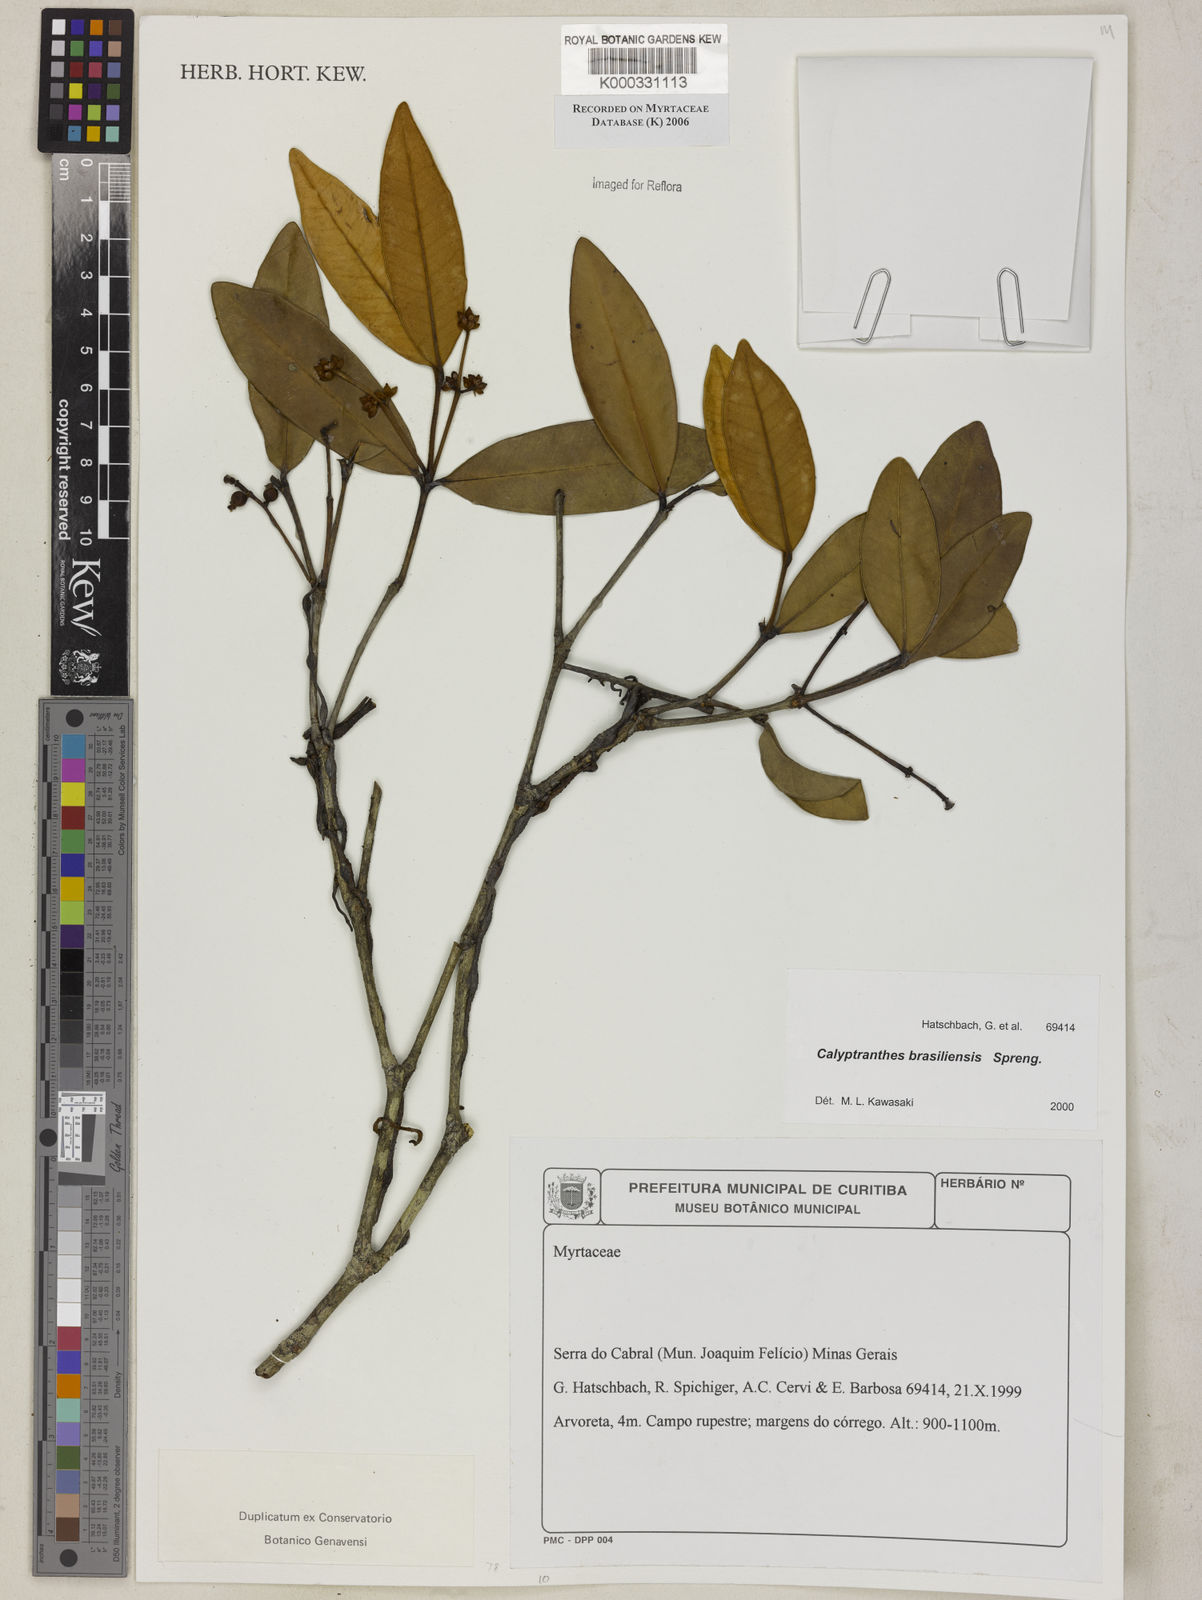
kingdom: Plantae
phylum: Tracheophyta
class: Magnoliopsida
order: Myrtales
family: Myrtaceae
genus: Myrcia
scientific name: Myrcia neobrasiliensis
